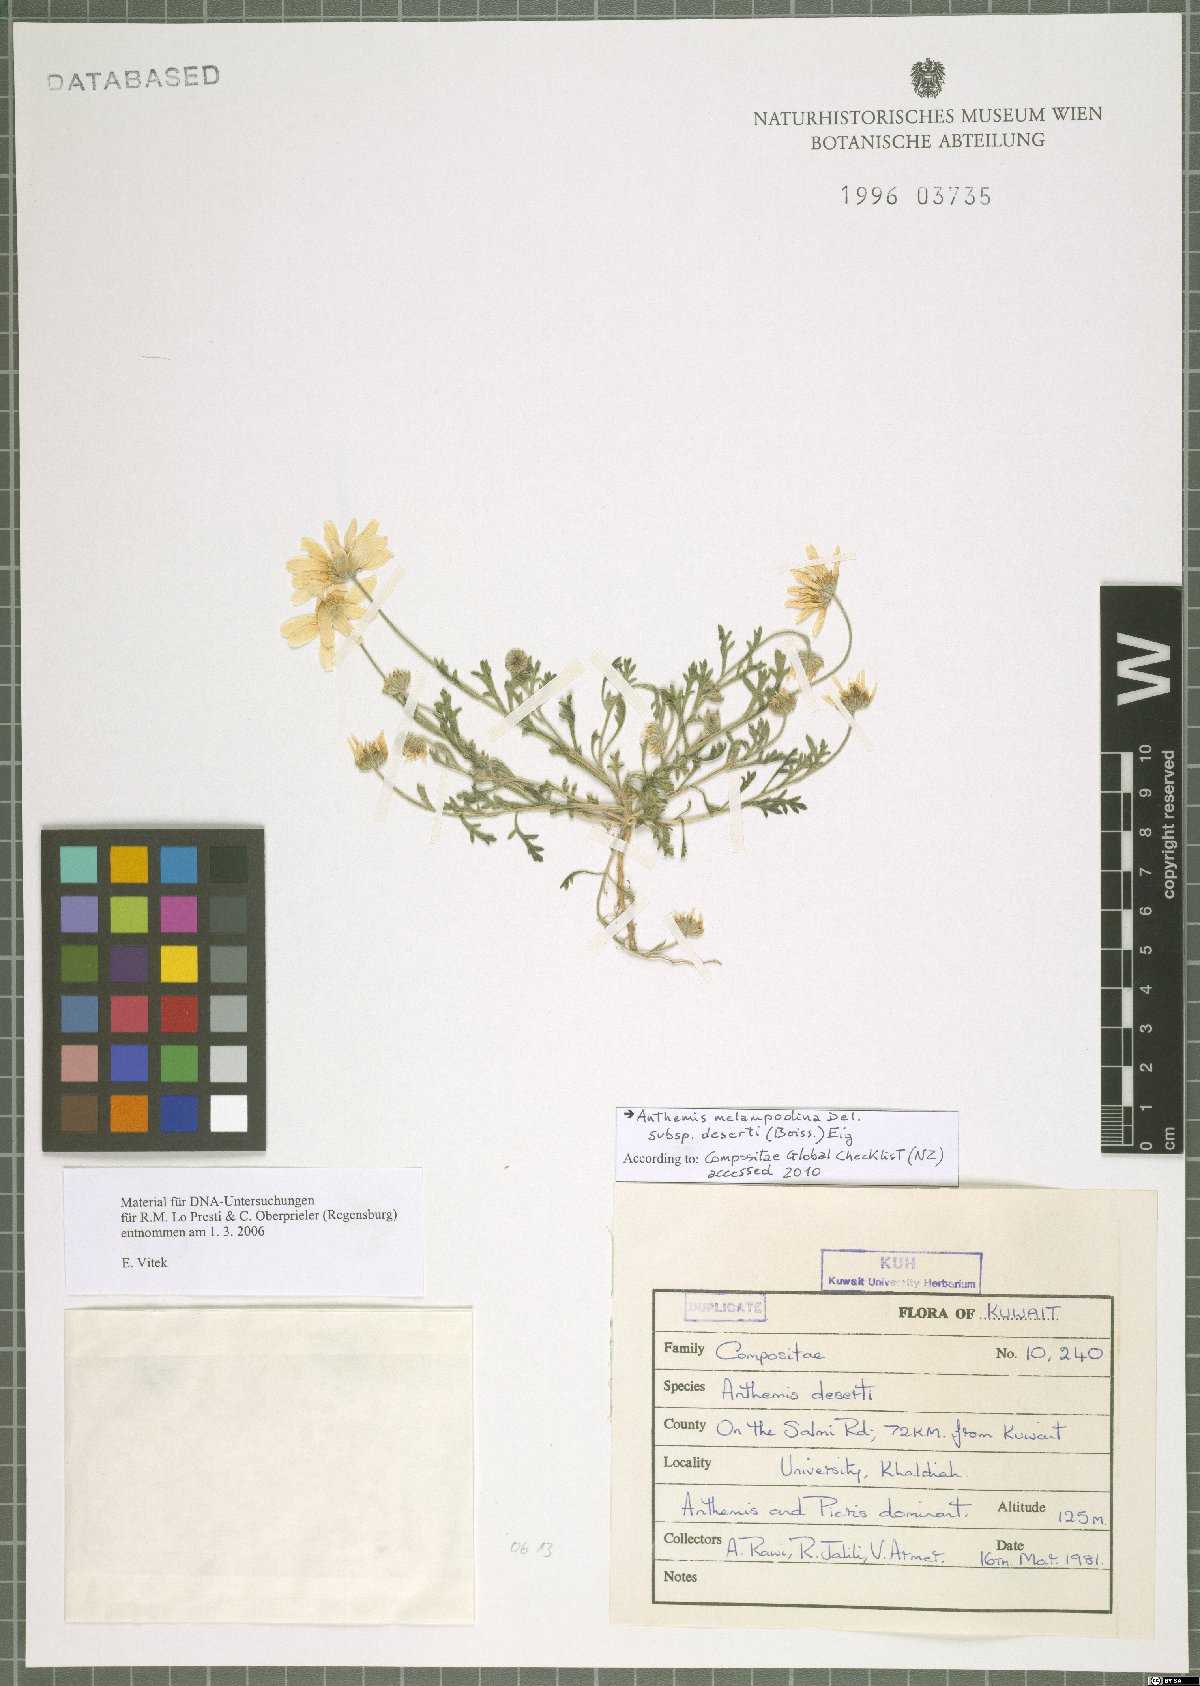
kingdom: Plantae
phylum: Tracheophyta
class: Magnoliopsida
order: Asterales
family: Asteraceae
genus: Anthemis
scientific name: Anthemis deserti
